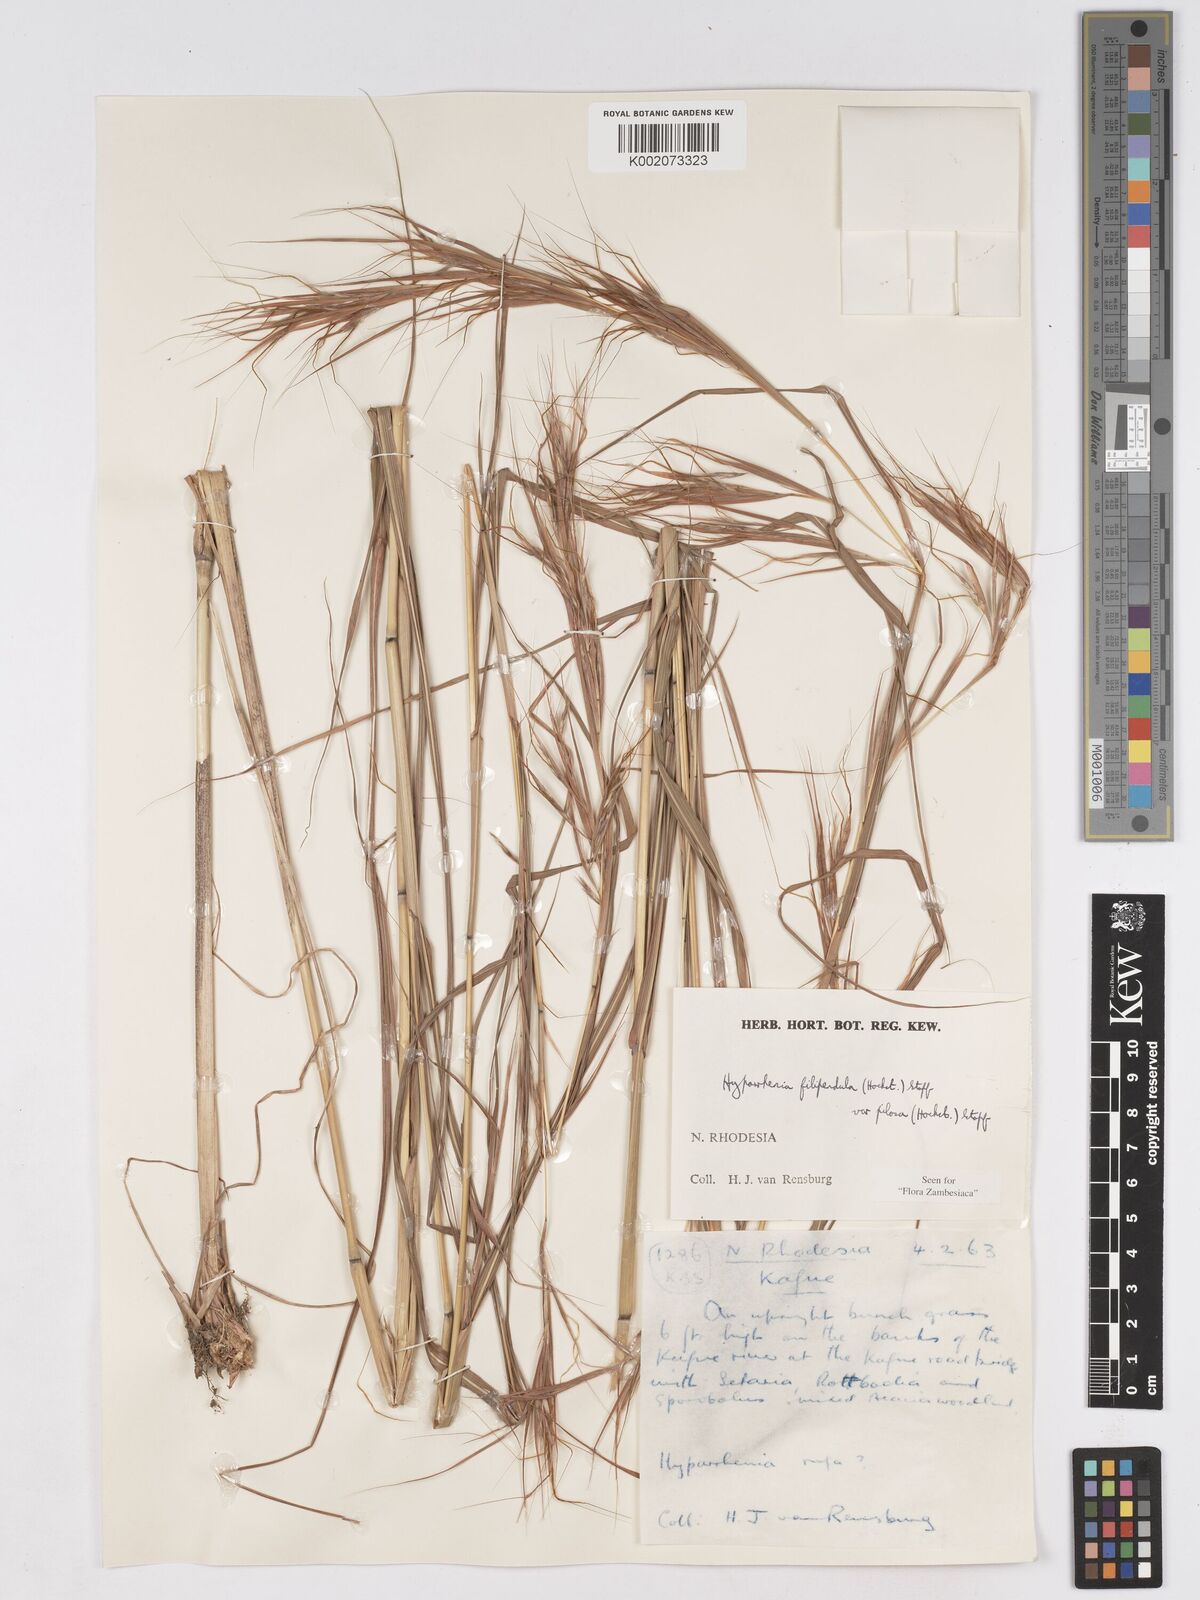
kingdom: Plantae
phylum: Tracheophyta
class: Liliopsida
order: Poales
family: Poaceae
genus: Hyparrhenia
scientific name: Hyparrhenia filipendula
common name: Tambookie grass
